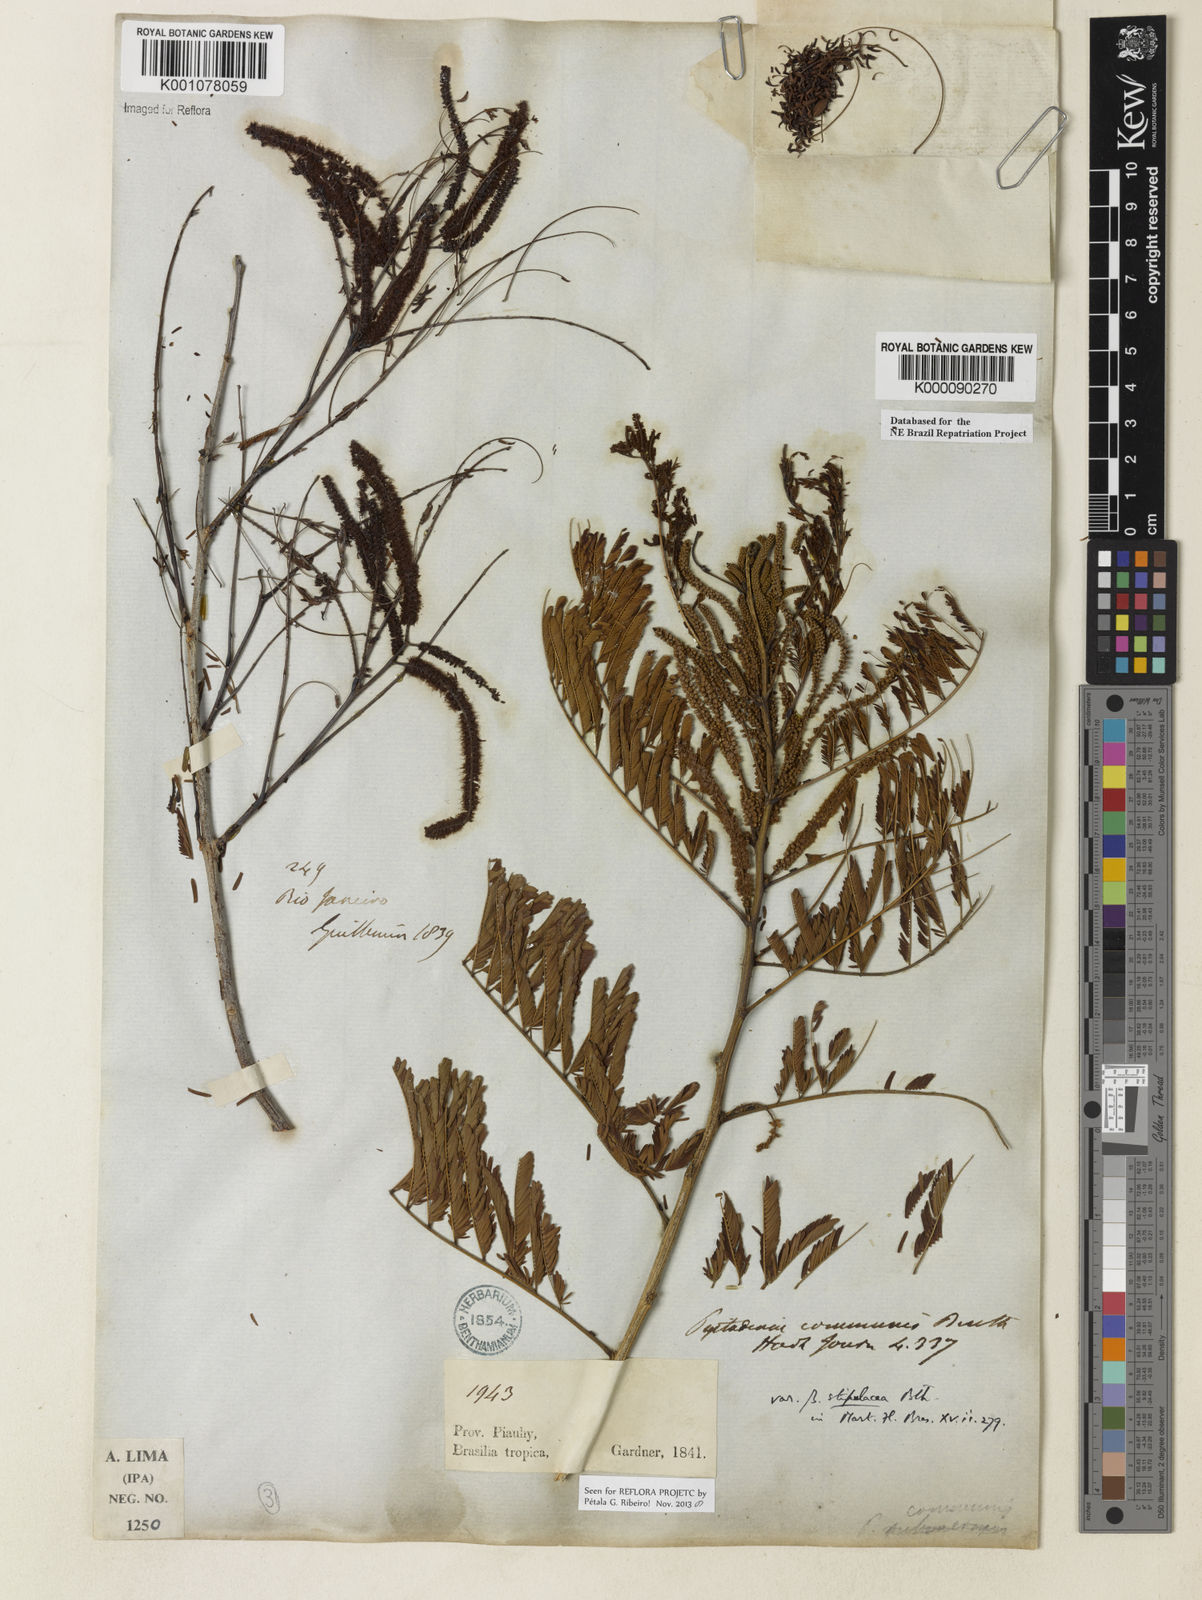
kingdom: Plantae
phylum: Tracheophyta
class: Magnoliopsida
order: Fabales
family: Fabaceae
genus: Piptadenia
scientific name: Piptadenia retusa
